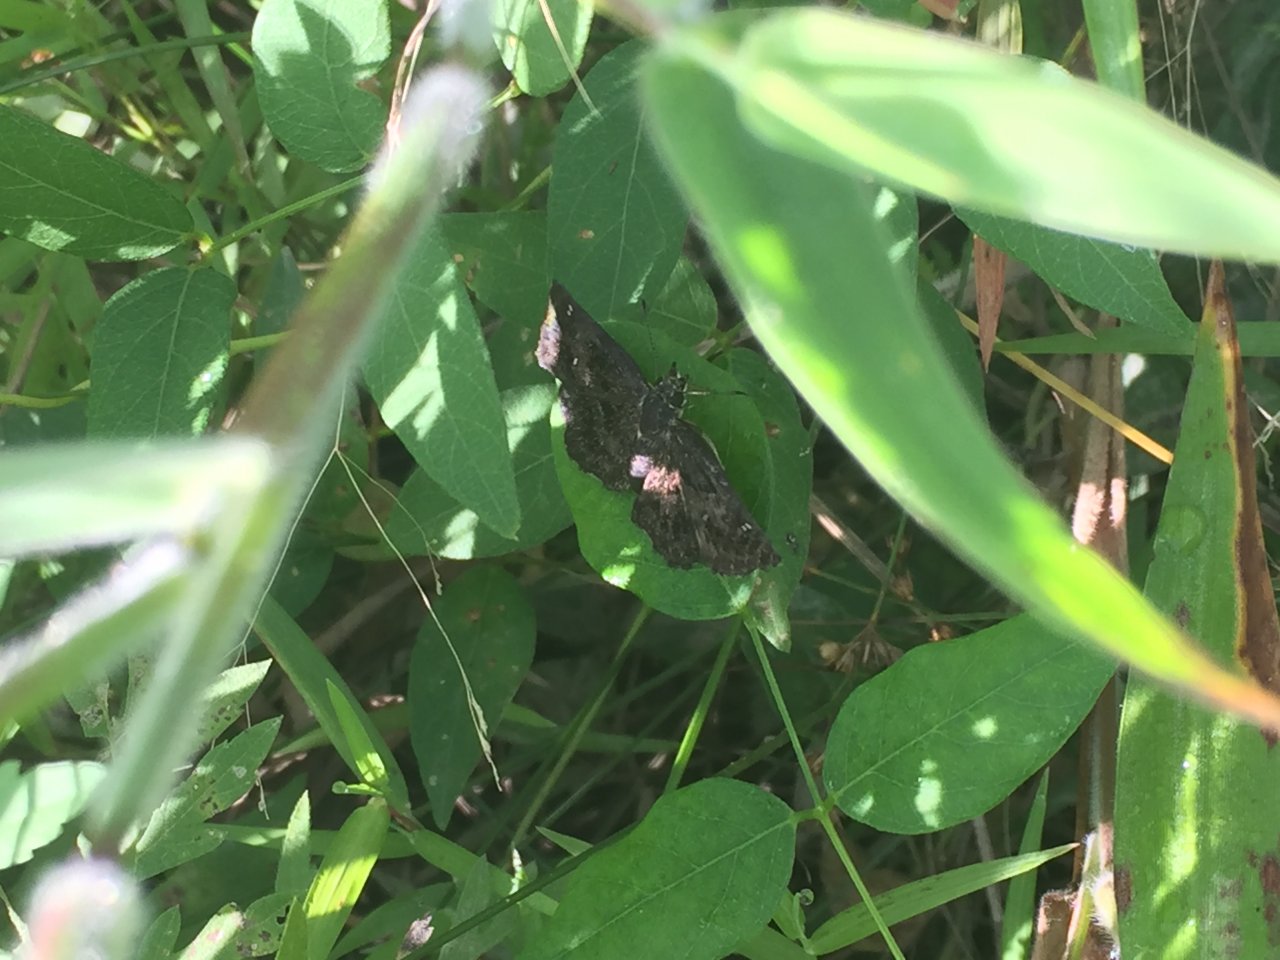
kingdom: Animalia
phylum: Arthropoda
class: Insecta
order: Lepidoptera
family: Hesperiidae
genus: Staphylus
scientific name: Staphylus mazans
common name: Hayhurst's Scallopwing
